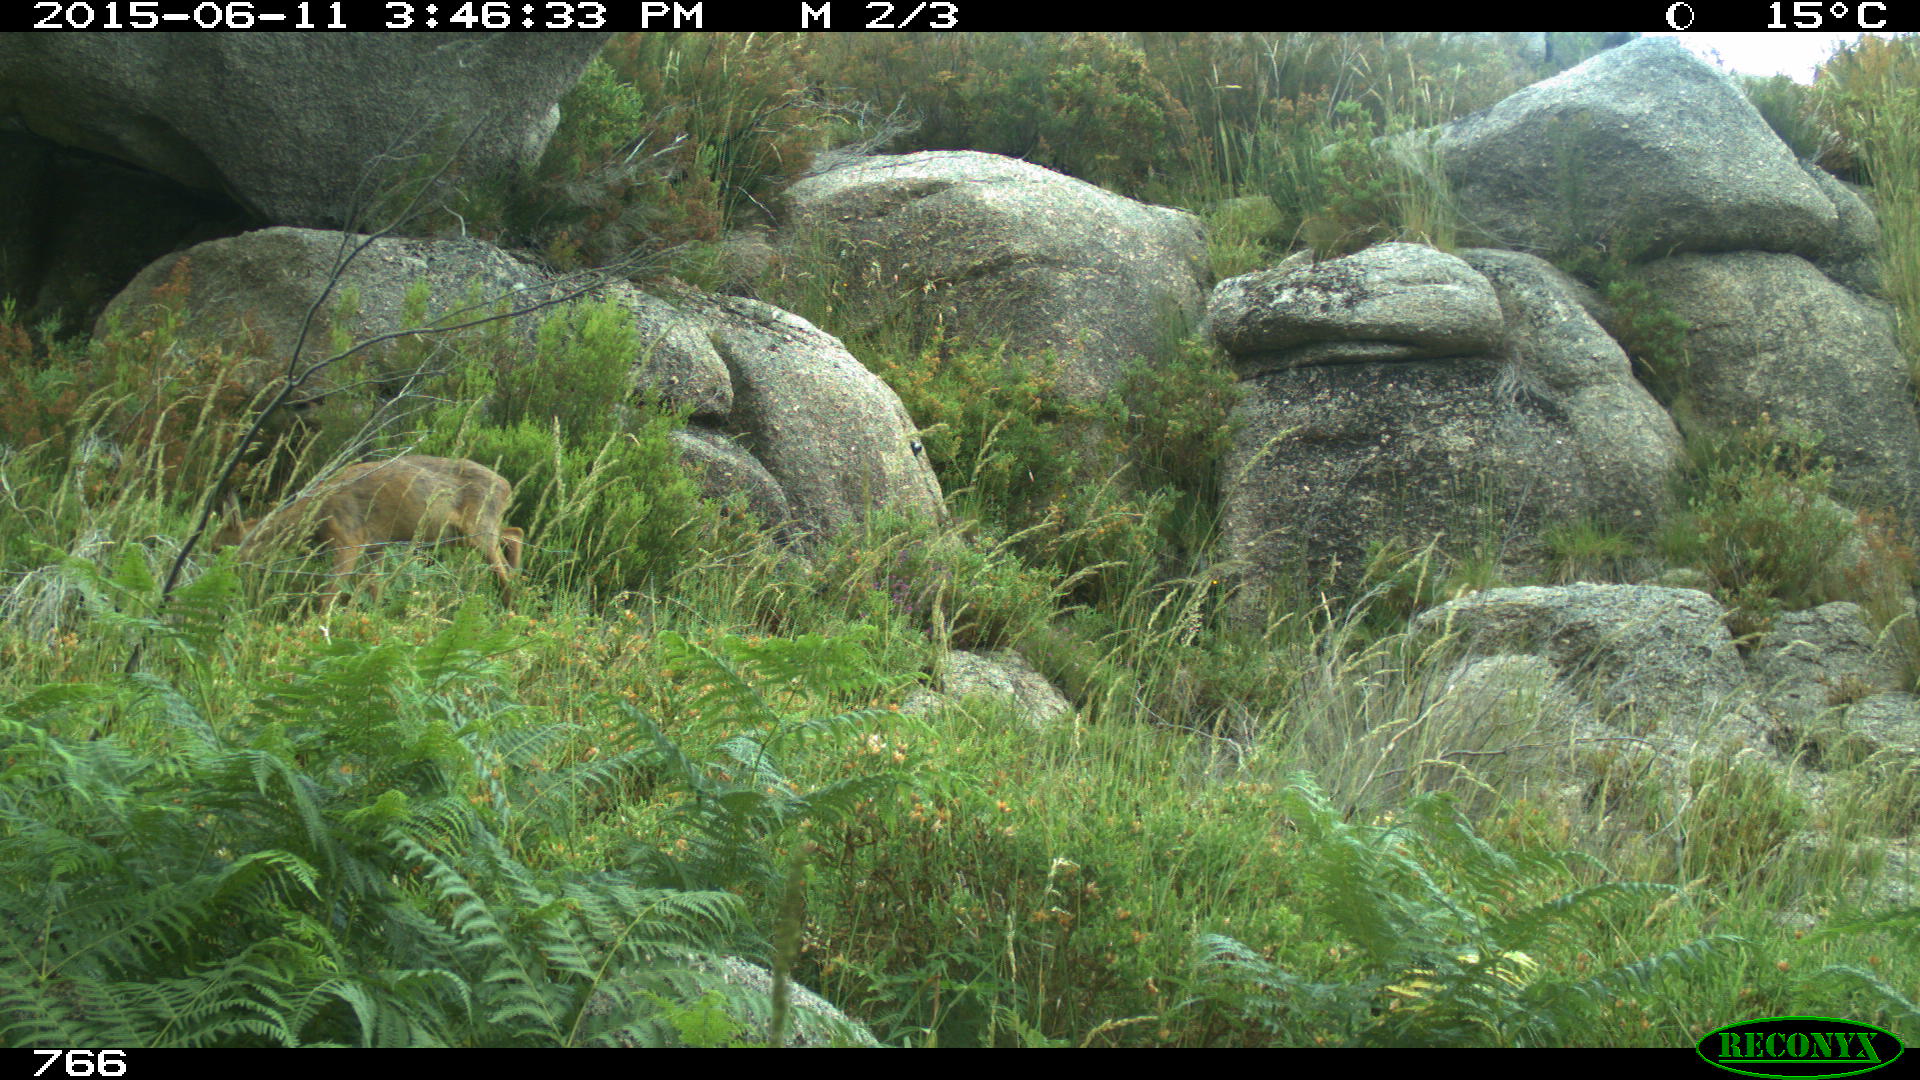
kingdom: Animalia
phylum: Chordata
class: Mammalia
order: Artiodactyla
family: Cervidae
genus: Capreolus
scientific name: Capreolus capreolus
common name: Western roe deer
